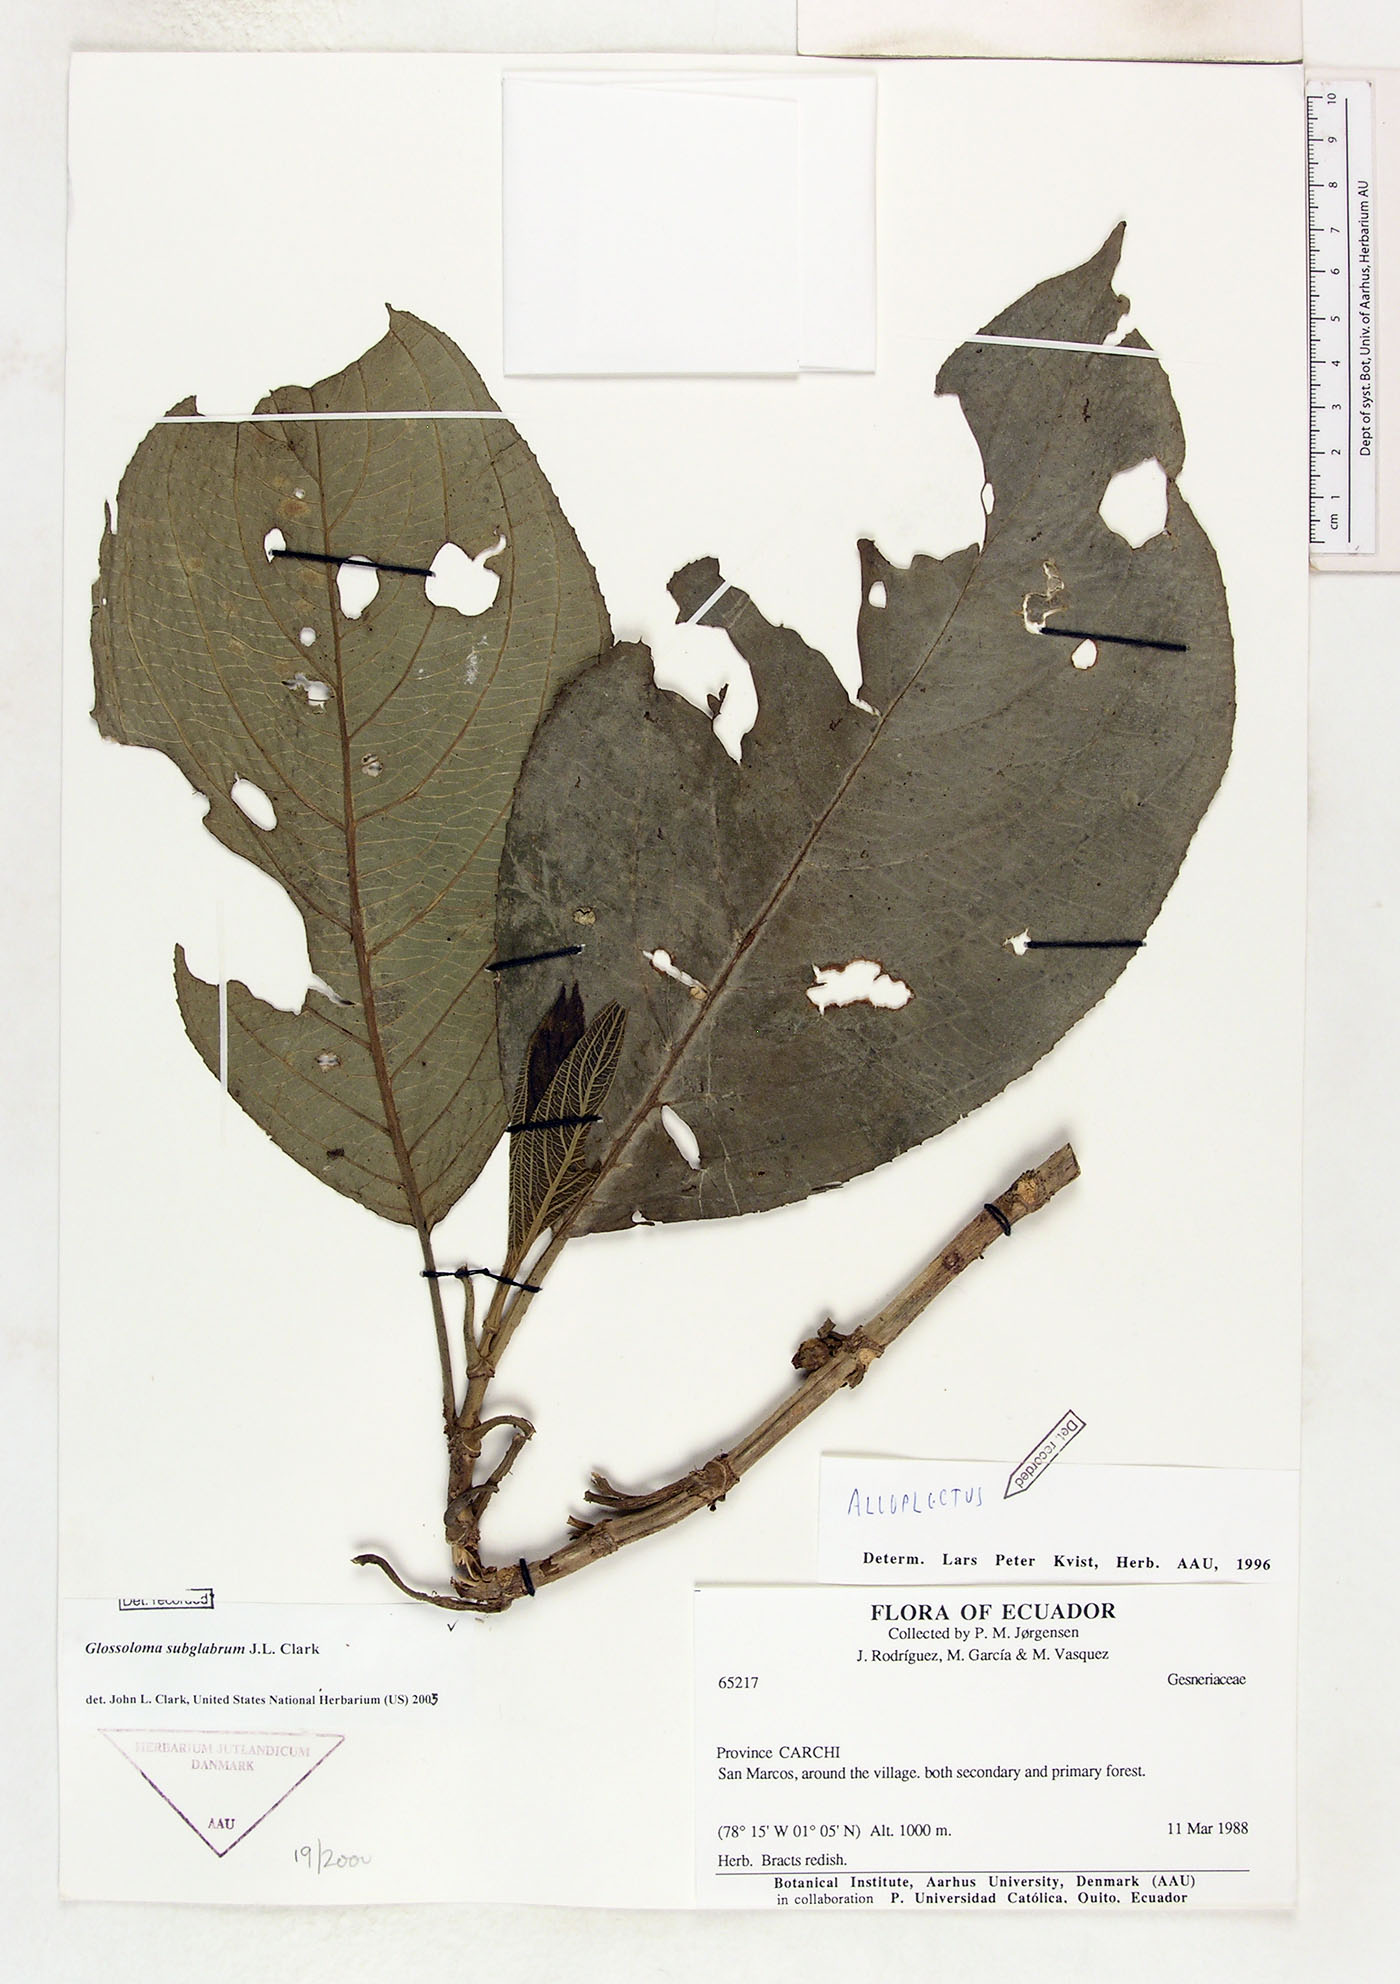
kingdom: Plantae
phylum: Tracheophyta
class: Magnoliopsida
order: Lamiales
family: Gesneriaceae
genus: Glossoloma
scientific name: Glossoloma subglabrum
